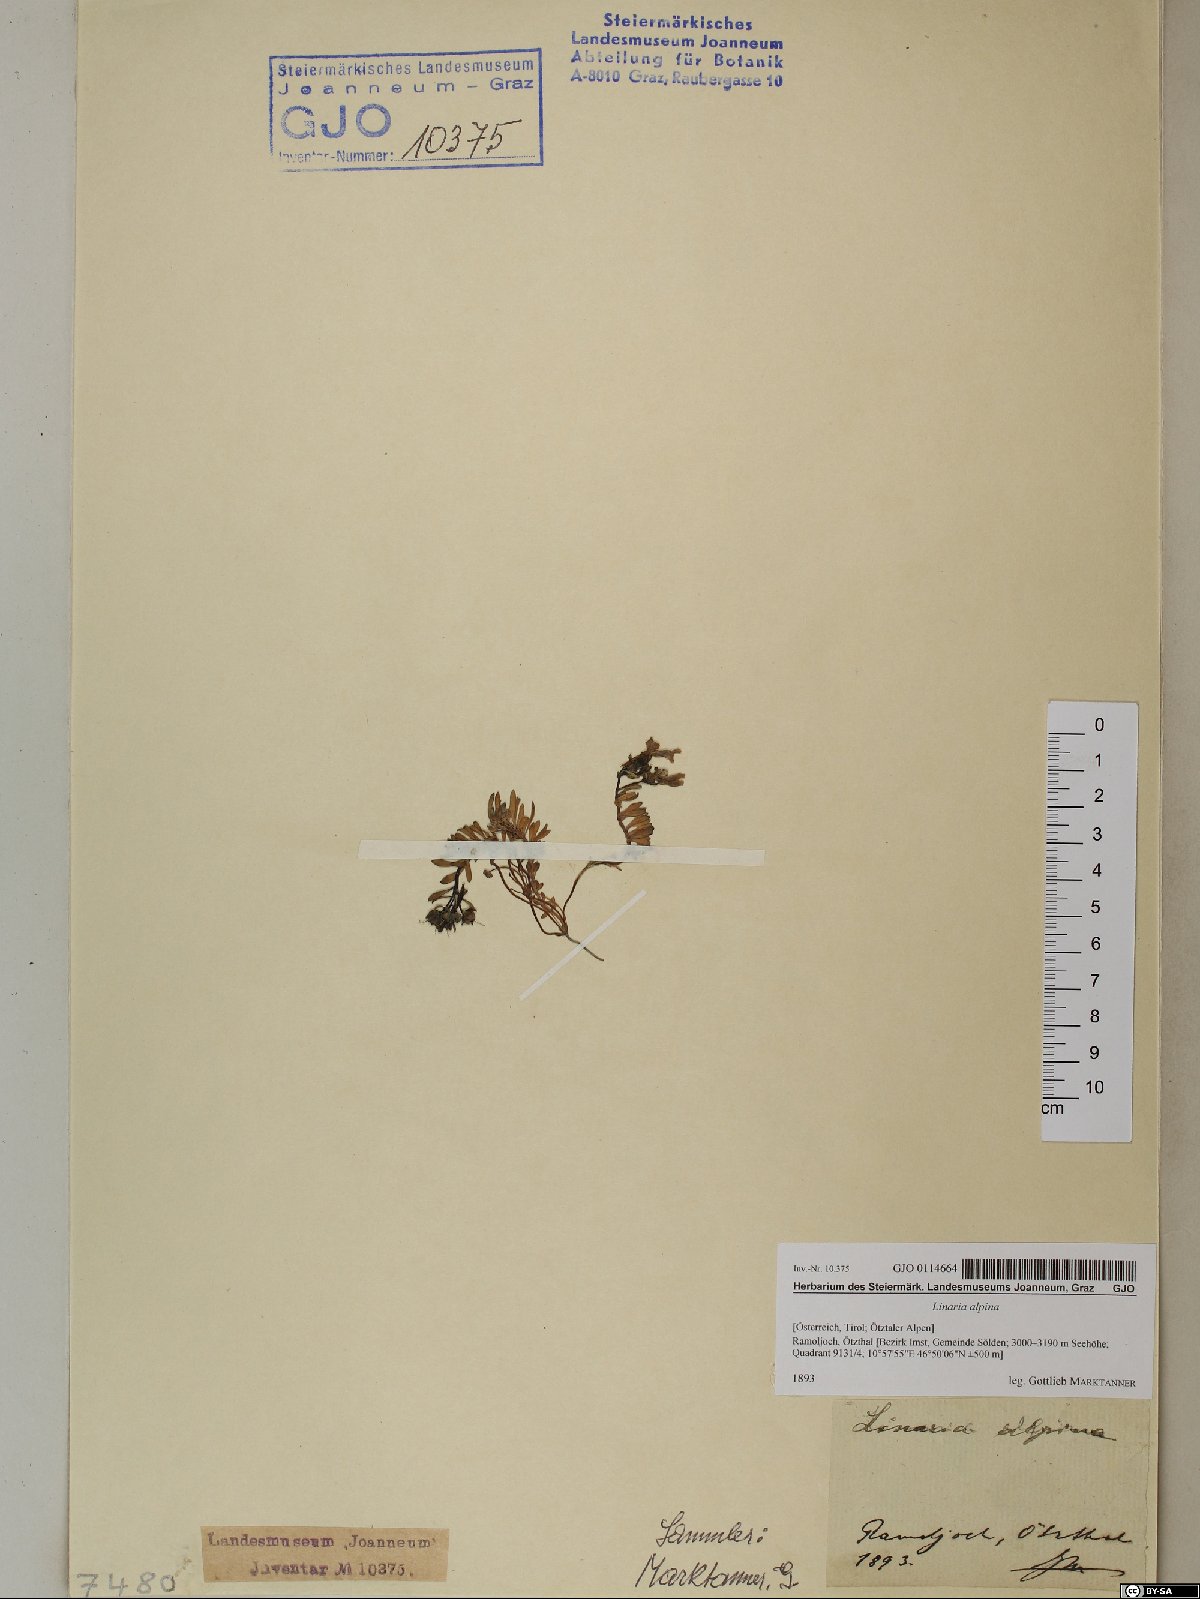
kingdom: Plantae
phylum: Tracheophyta
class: Magnoliopsida
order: Lamiales
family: Plantaginaceae
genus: Linaria
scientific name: Linaria alpina
